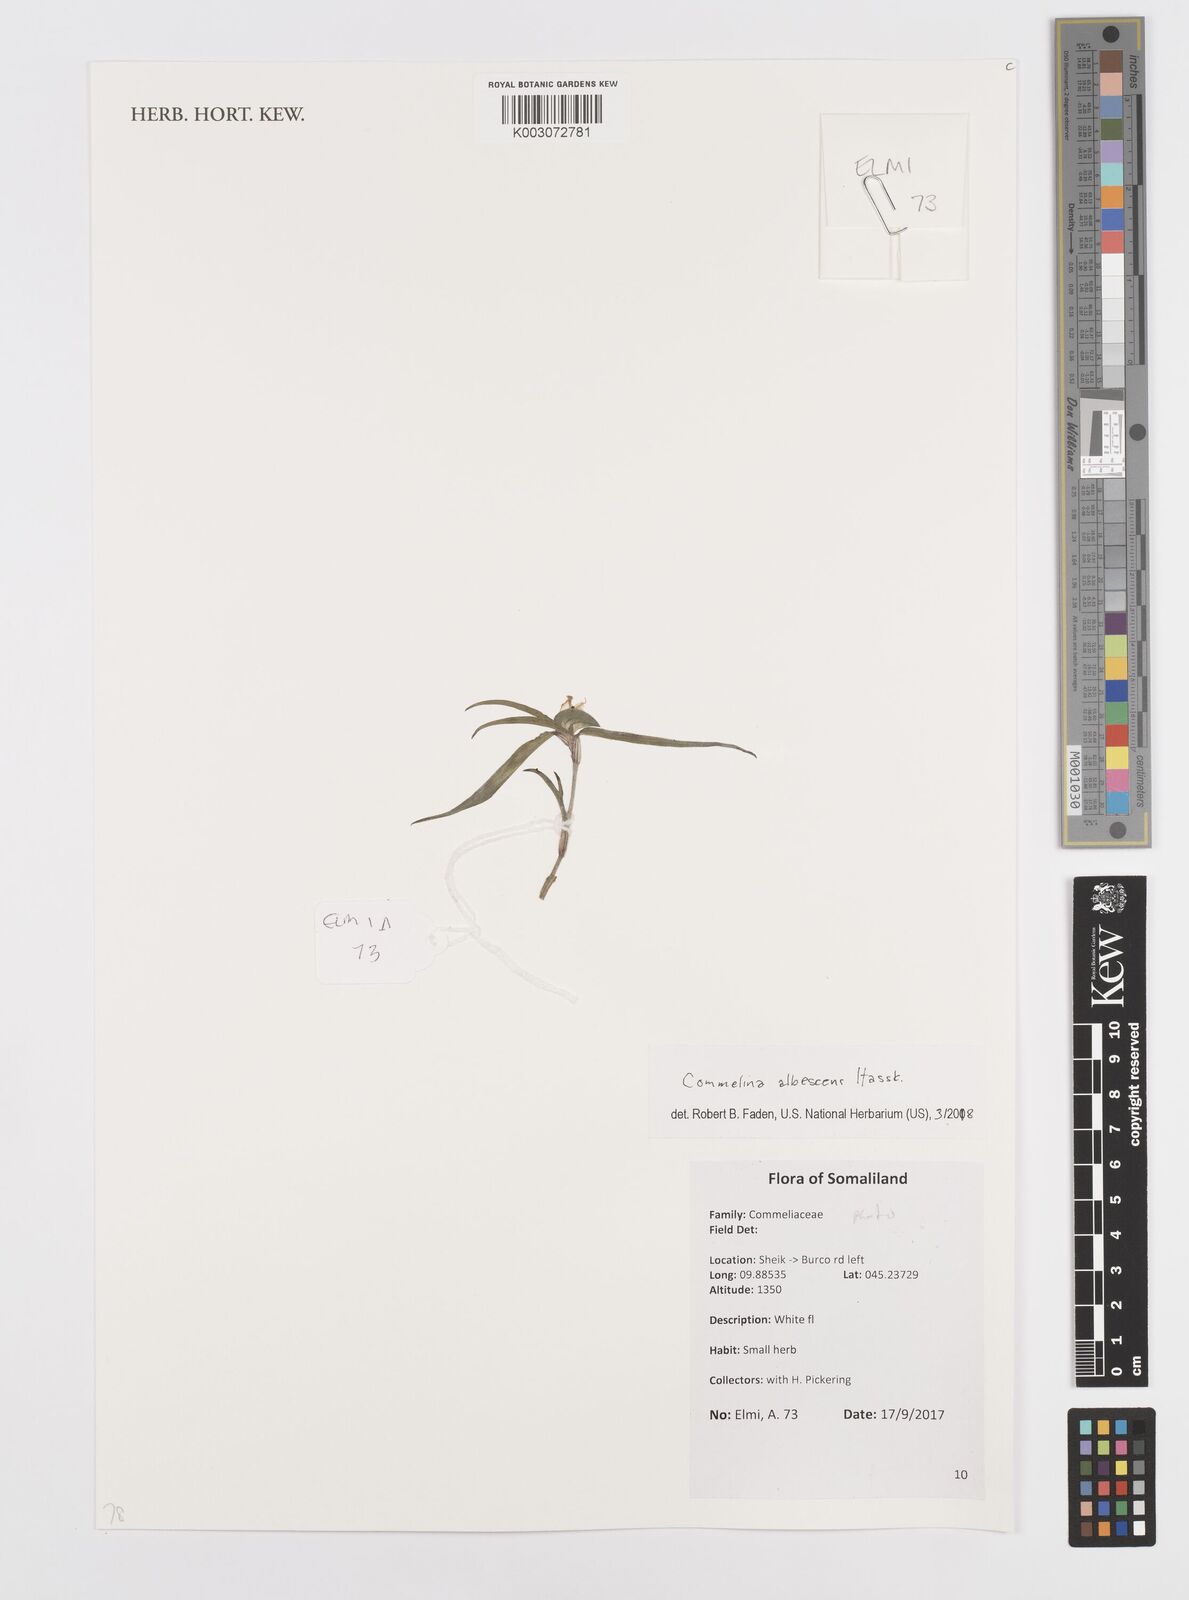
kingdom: Plantae
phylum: Tracheophyta
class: Liliopsida
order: Commelinales
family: Commelinaceae
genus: Commelina
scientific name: Commelina albescens
